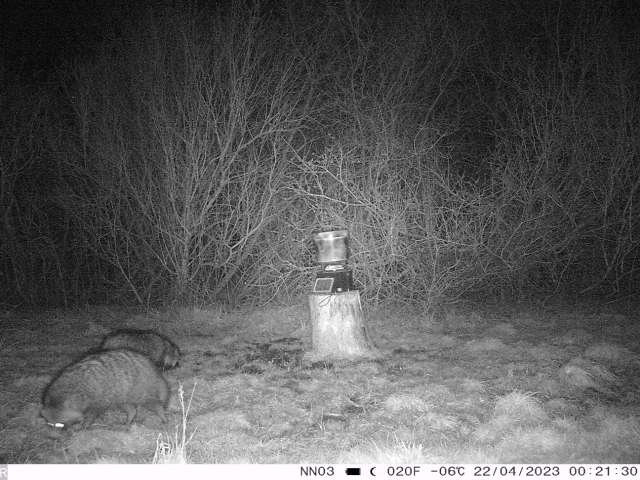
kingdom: Animalia
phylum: Chordata
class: Mammalia
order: Carnivora
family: Canidae
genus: Nyctereutes
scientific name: Nyctereutes procyonoides
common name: Mårhund
